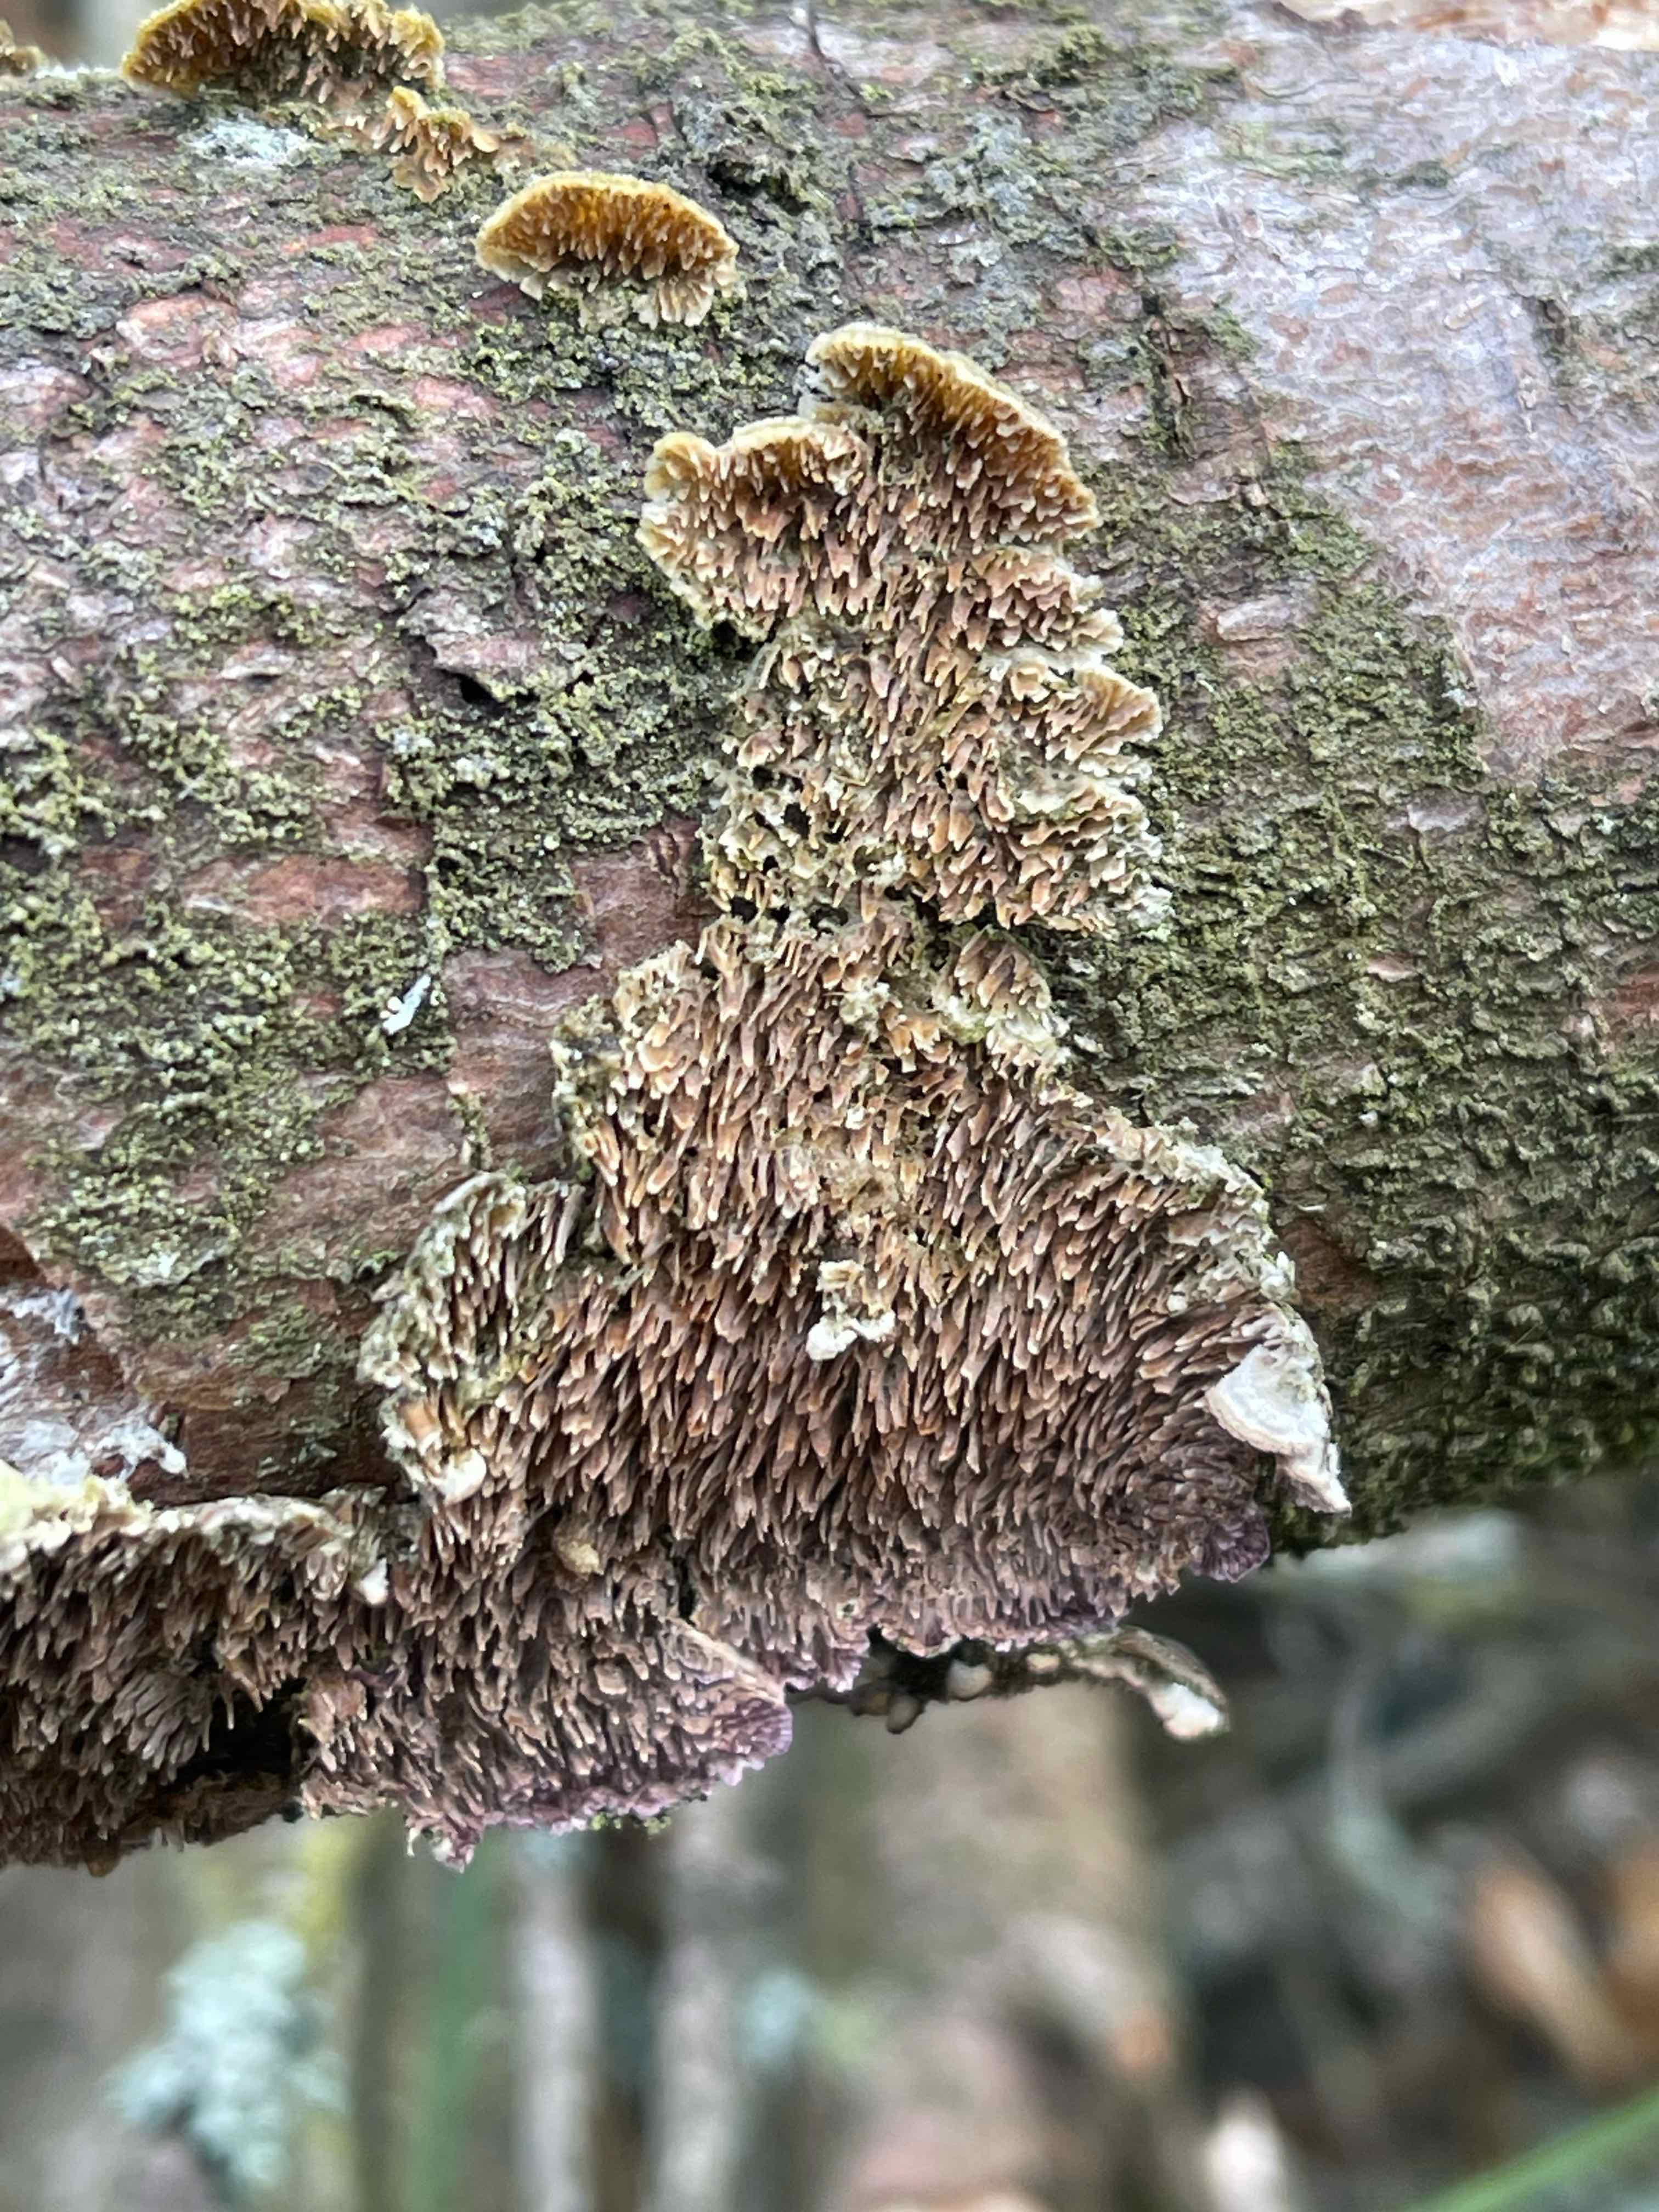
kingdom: Fungi
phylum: Basidiomycota
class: Agaricomycetes
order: Hymenochaetales
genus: Trichaptum
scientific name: Trichaptum fuscoviolaceum
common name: tandet violporesvamp
